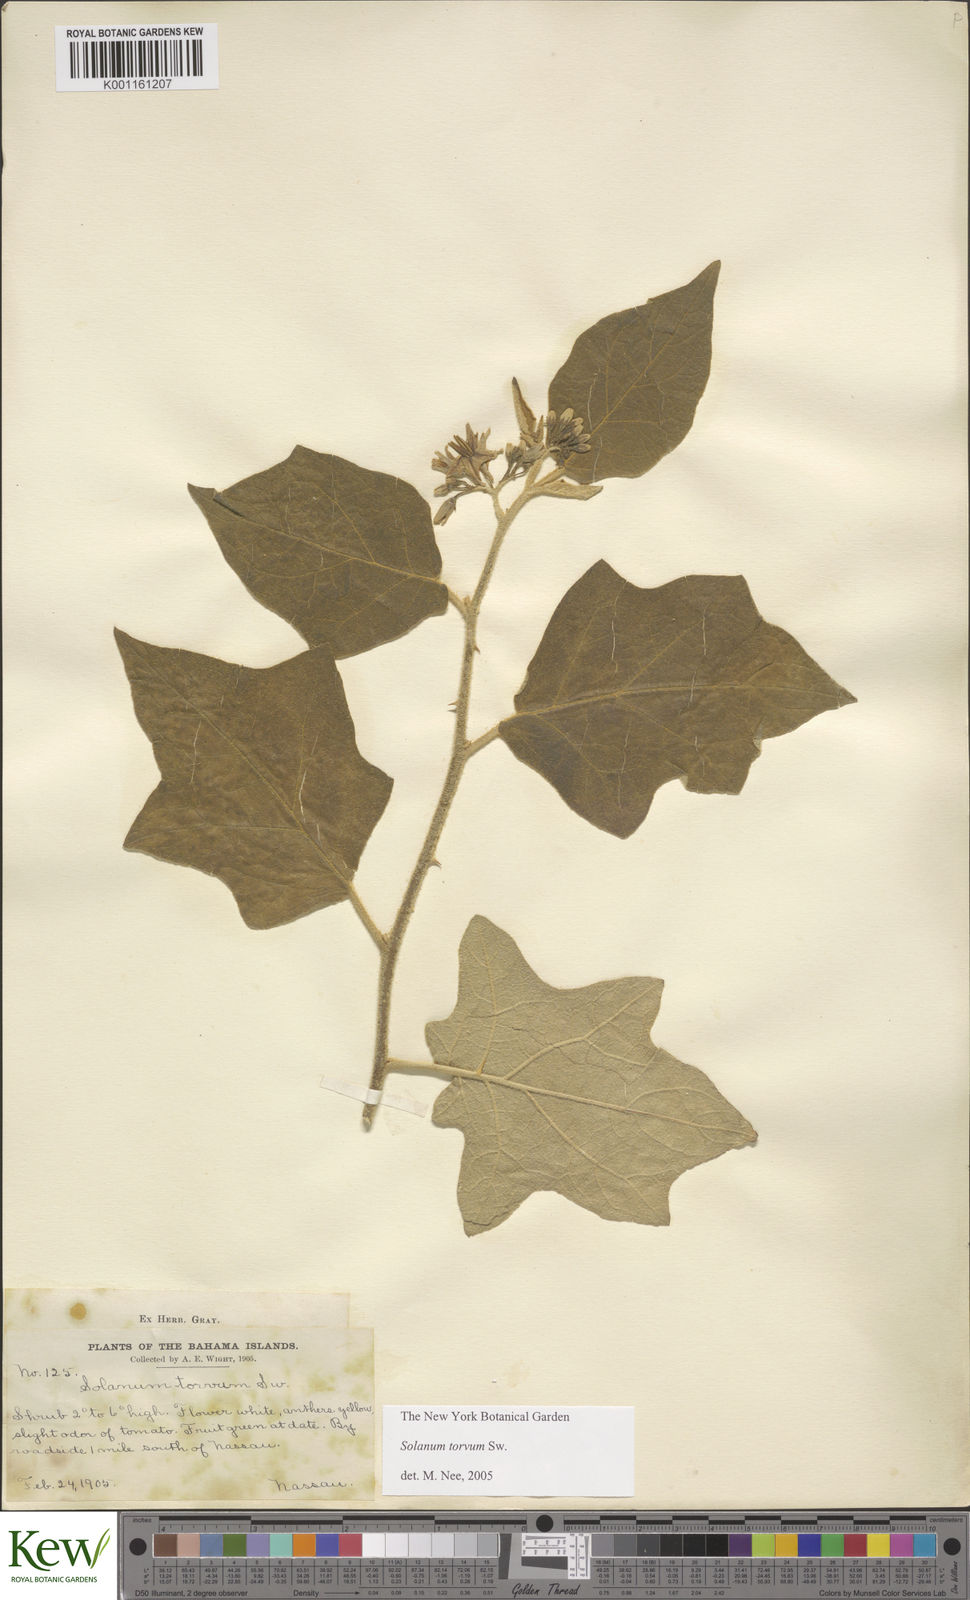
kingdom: Plantae
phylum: Tracheophyta
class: Magnoliopsida
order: Solanales
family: Solanaceae
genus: Solanum
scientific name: Solanum torvum
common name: Turkey berry
